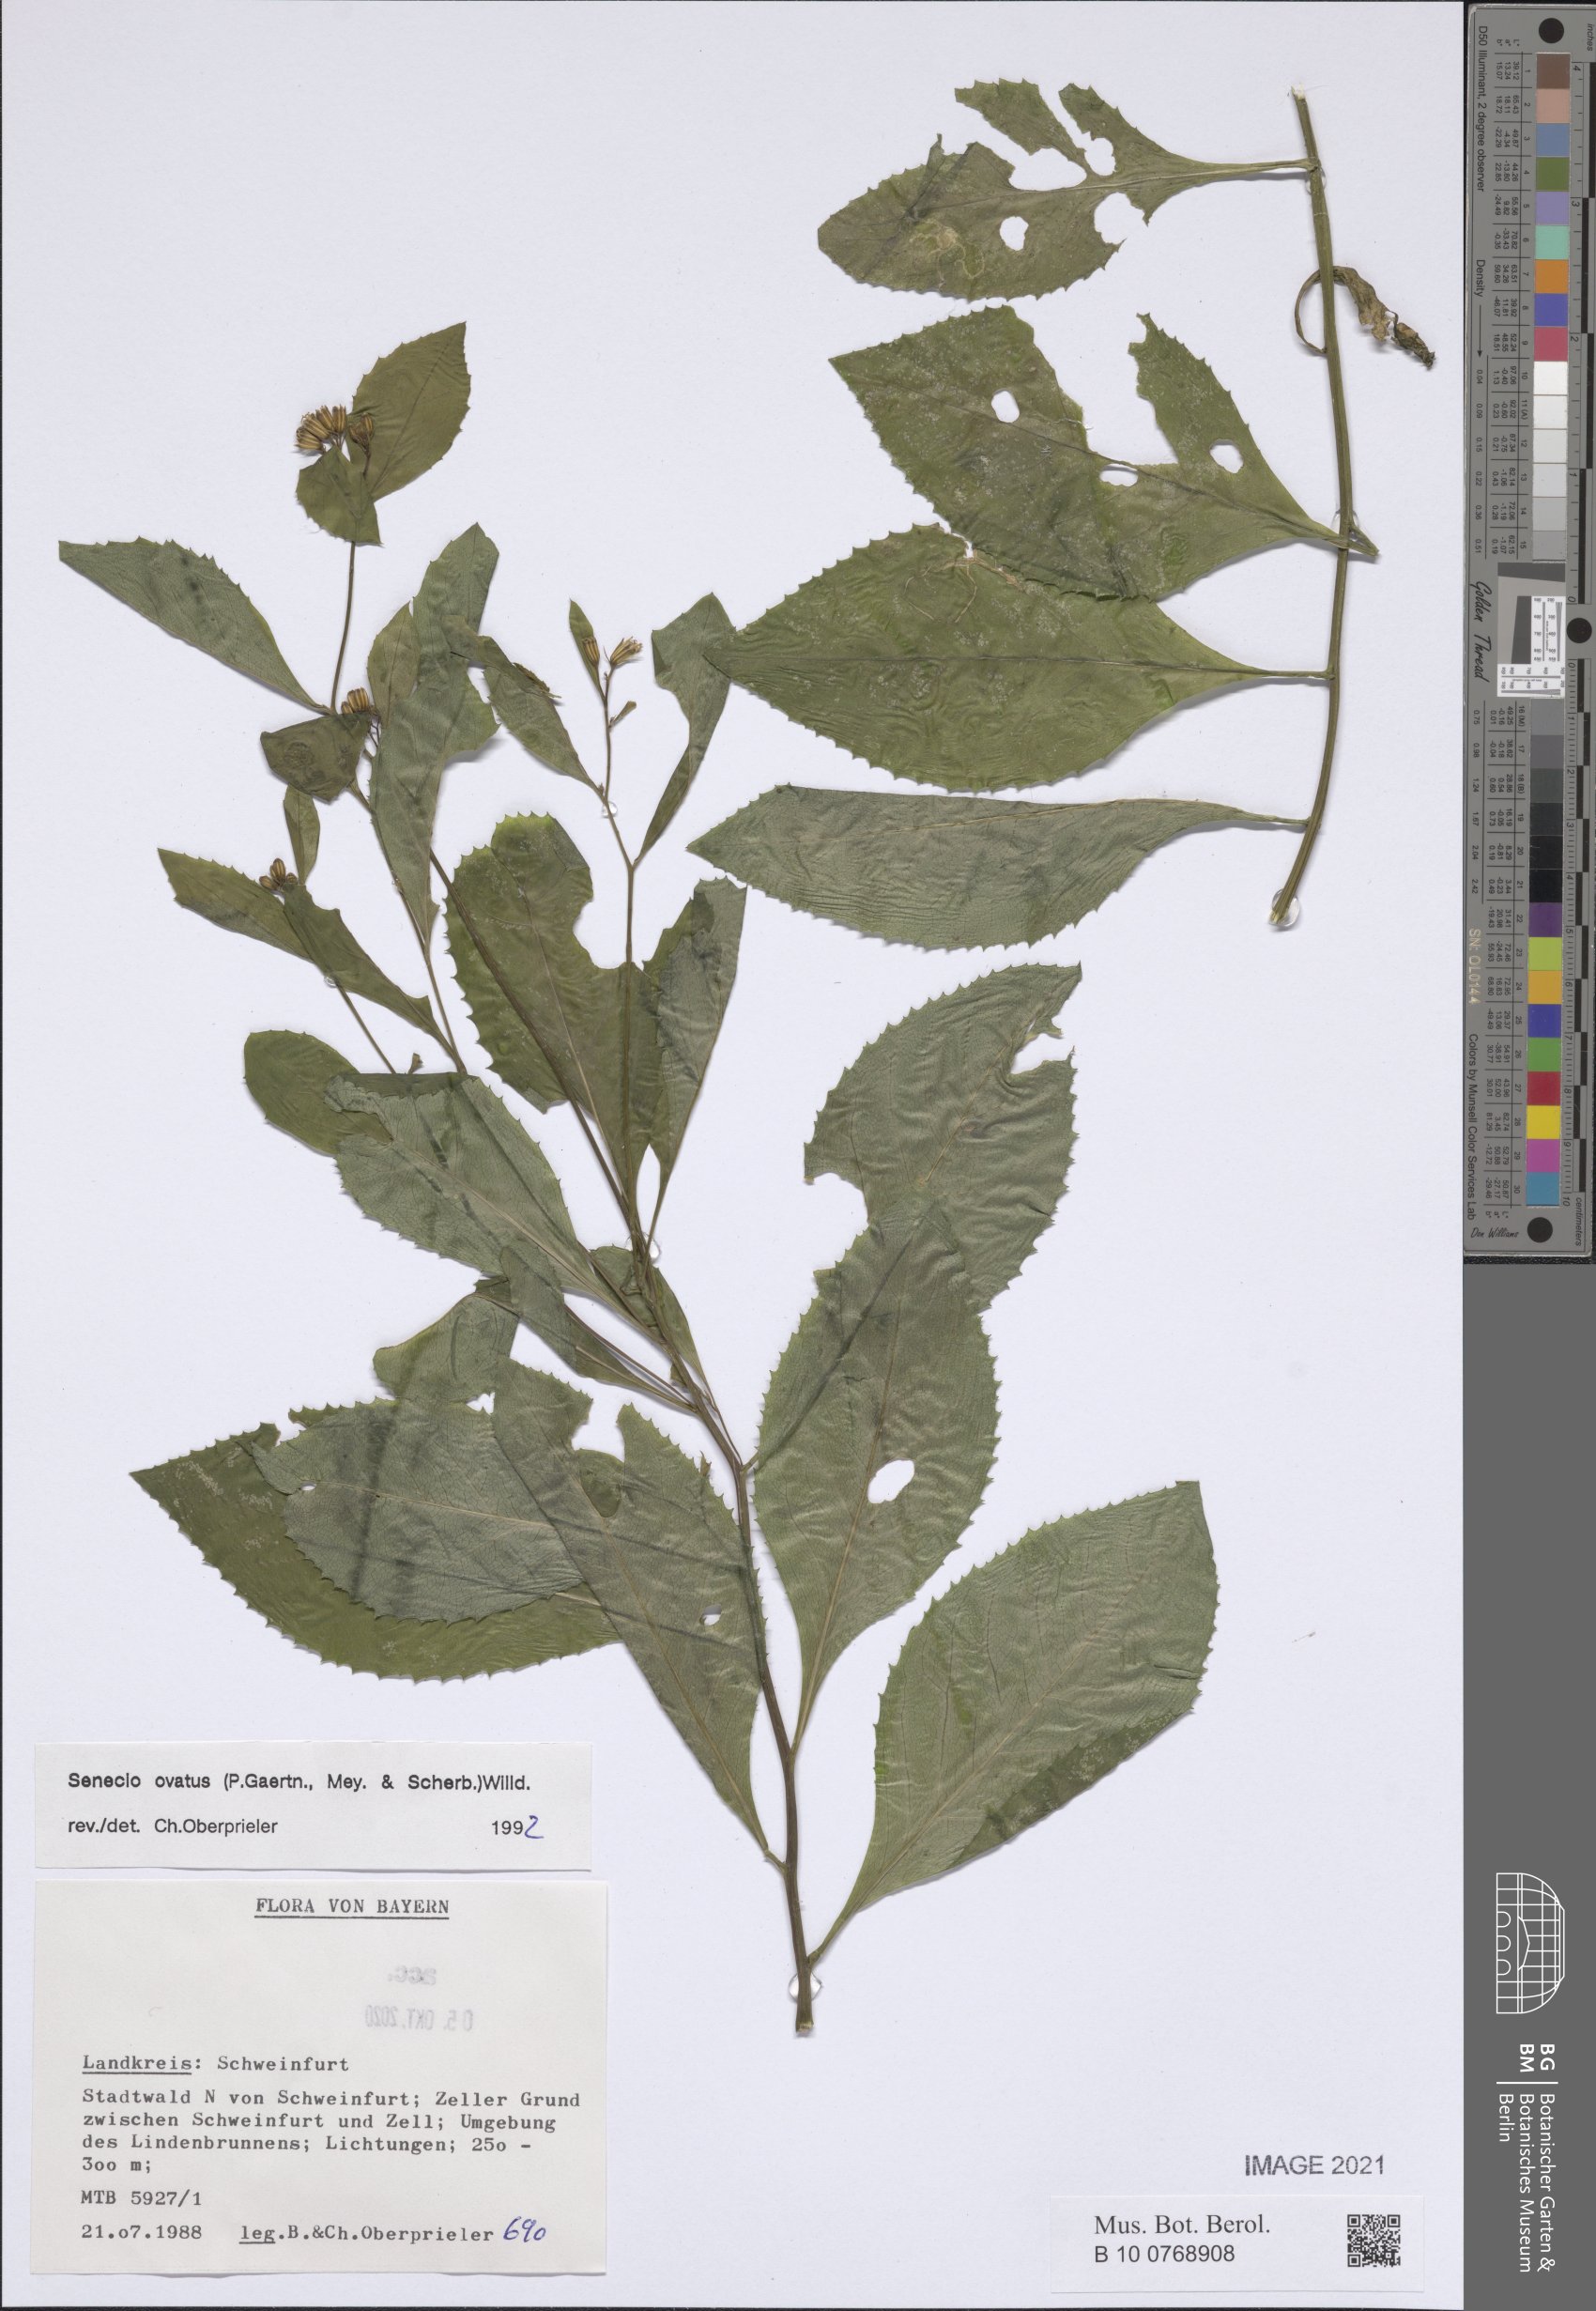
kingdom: Plantae
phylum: Tracheophyta
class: Magnoliopsida
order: Asterales
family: Asteraceae
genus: Senecio
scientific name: Senecio ovatus
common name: Wood ragwort
